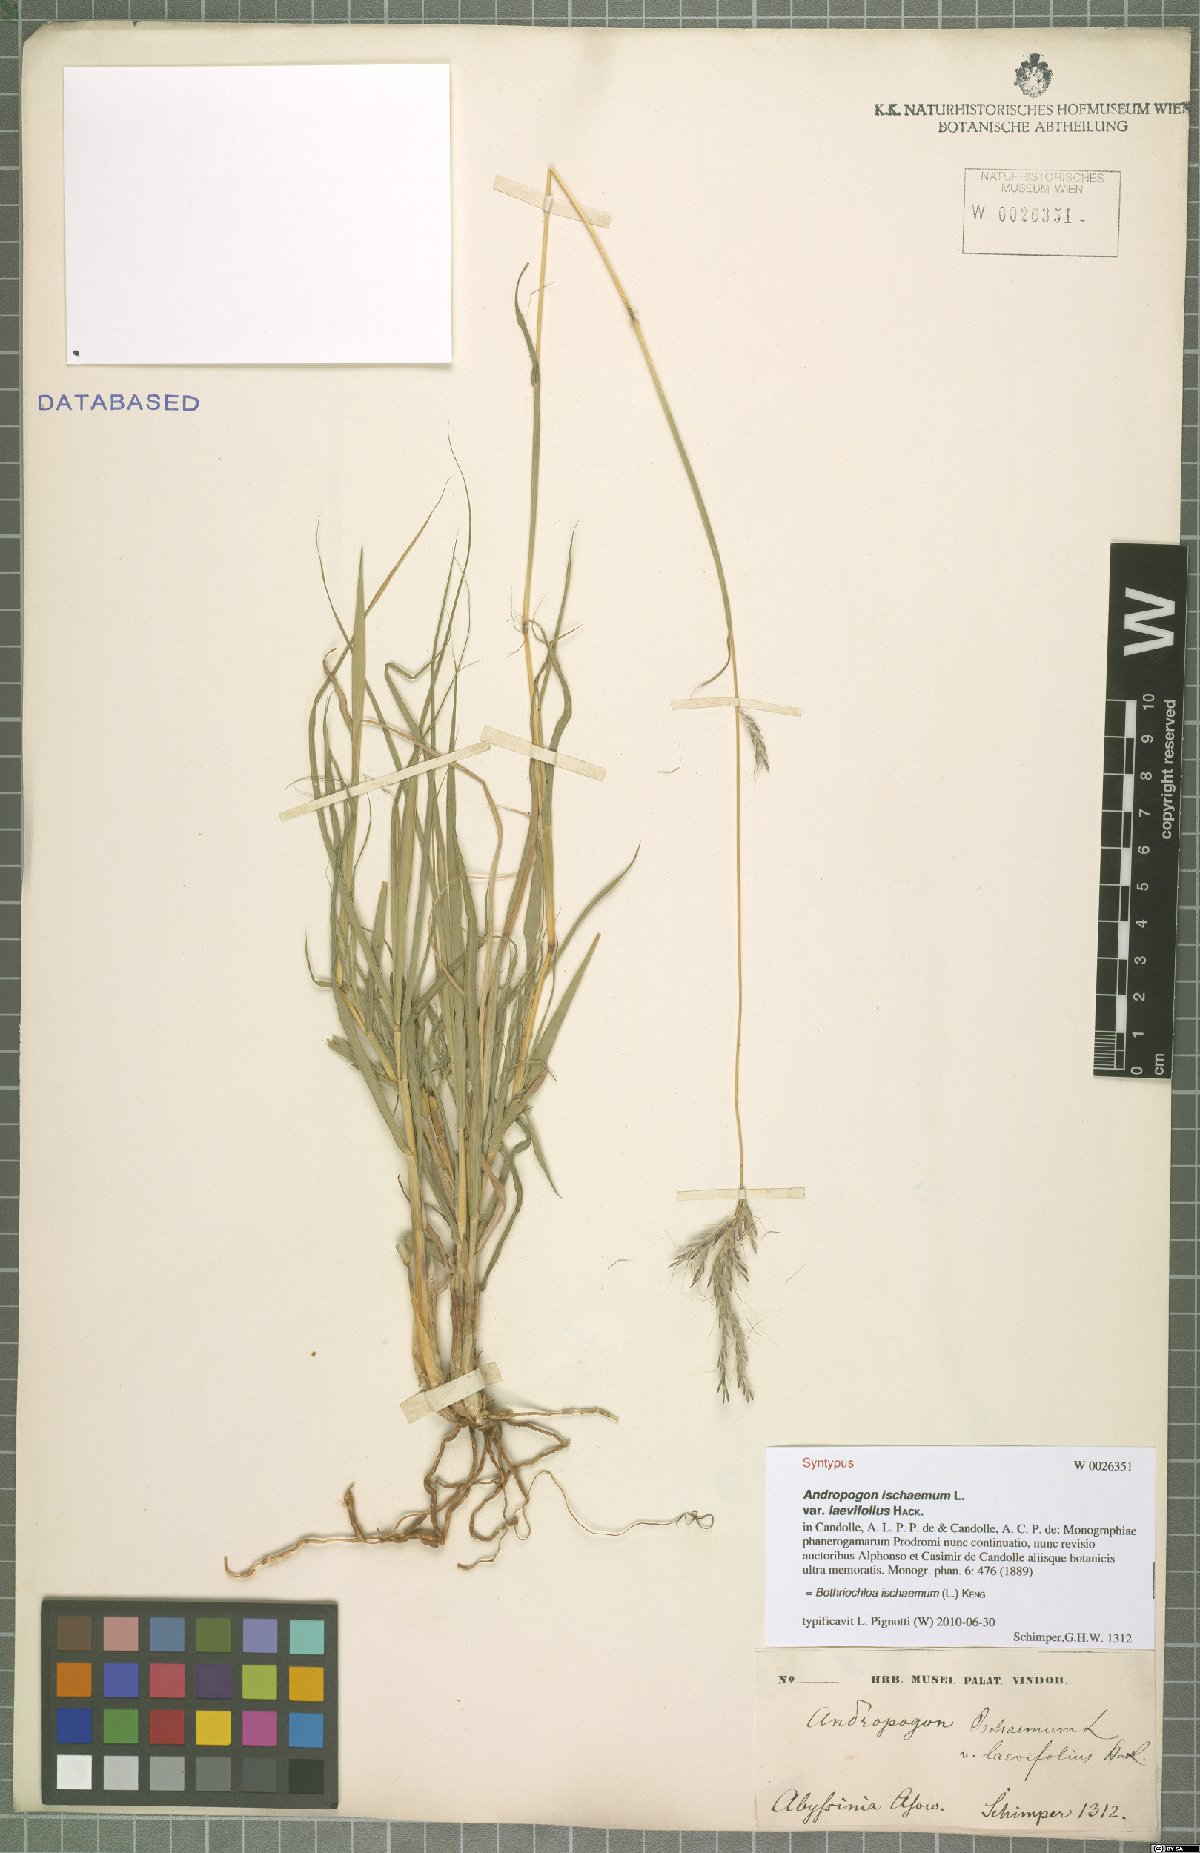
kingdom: Plantae
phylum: Tracheophyta
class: Liliopsida
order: Poales
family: Poaceae
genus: Bothriochloa
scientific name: Bothriochloa ischaemum
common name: Yellow bluestem
